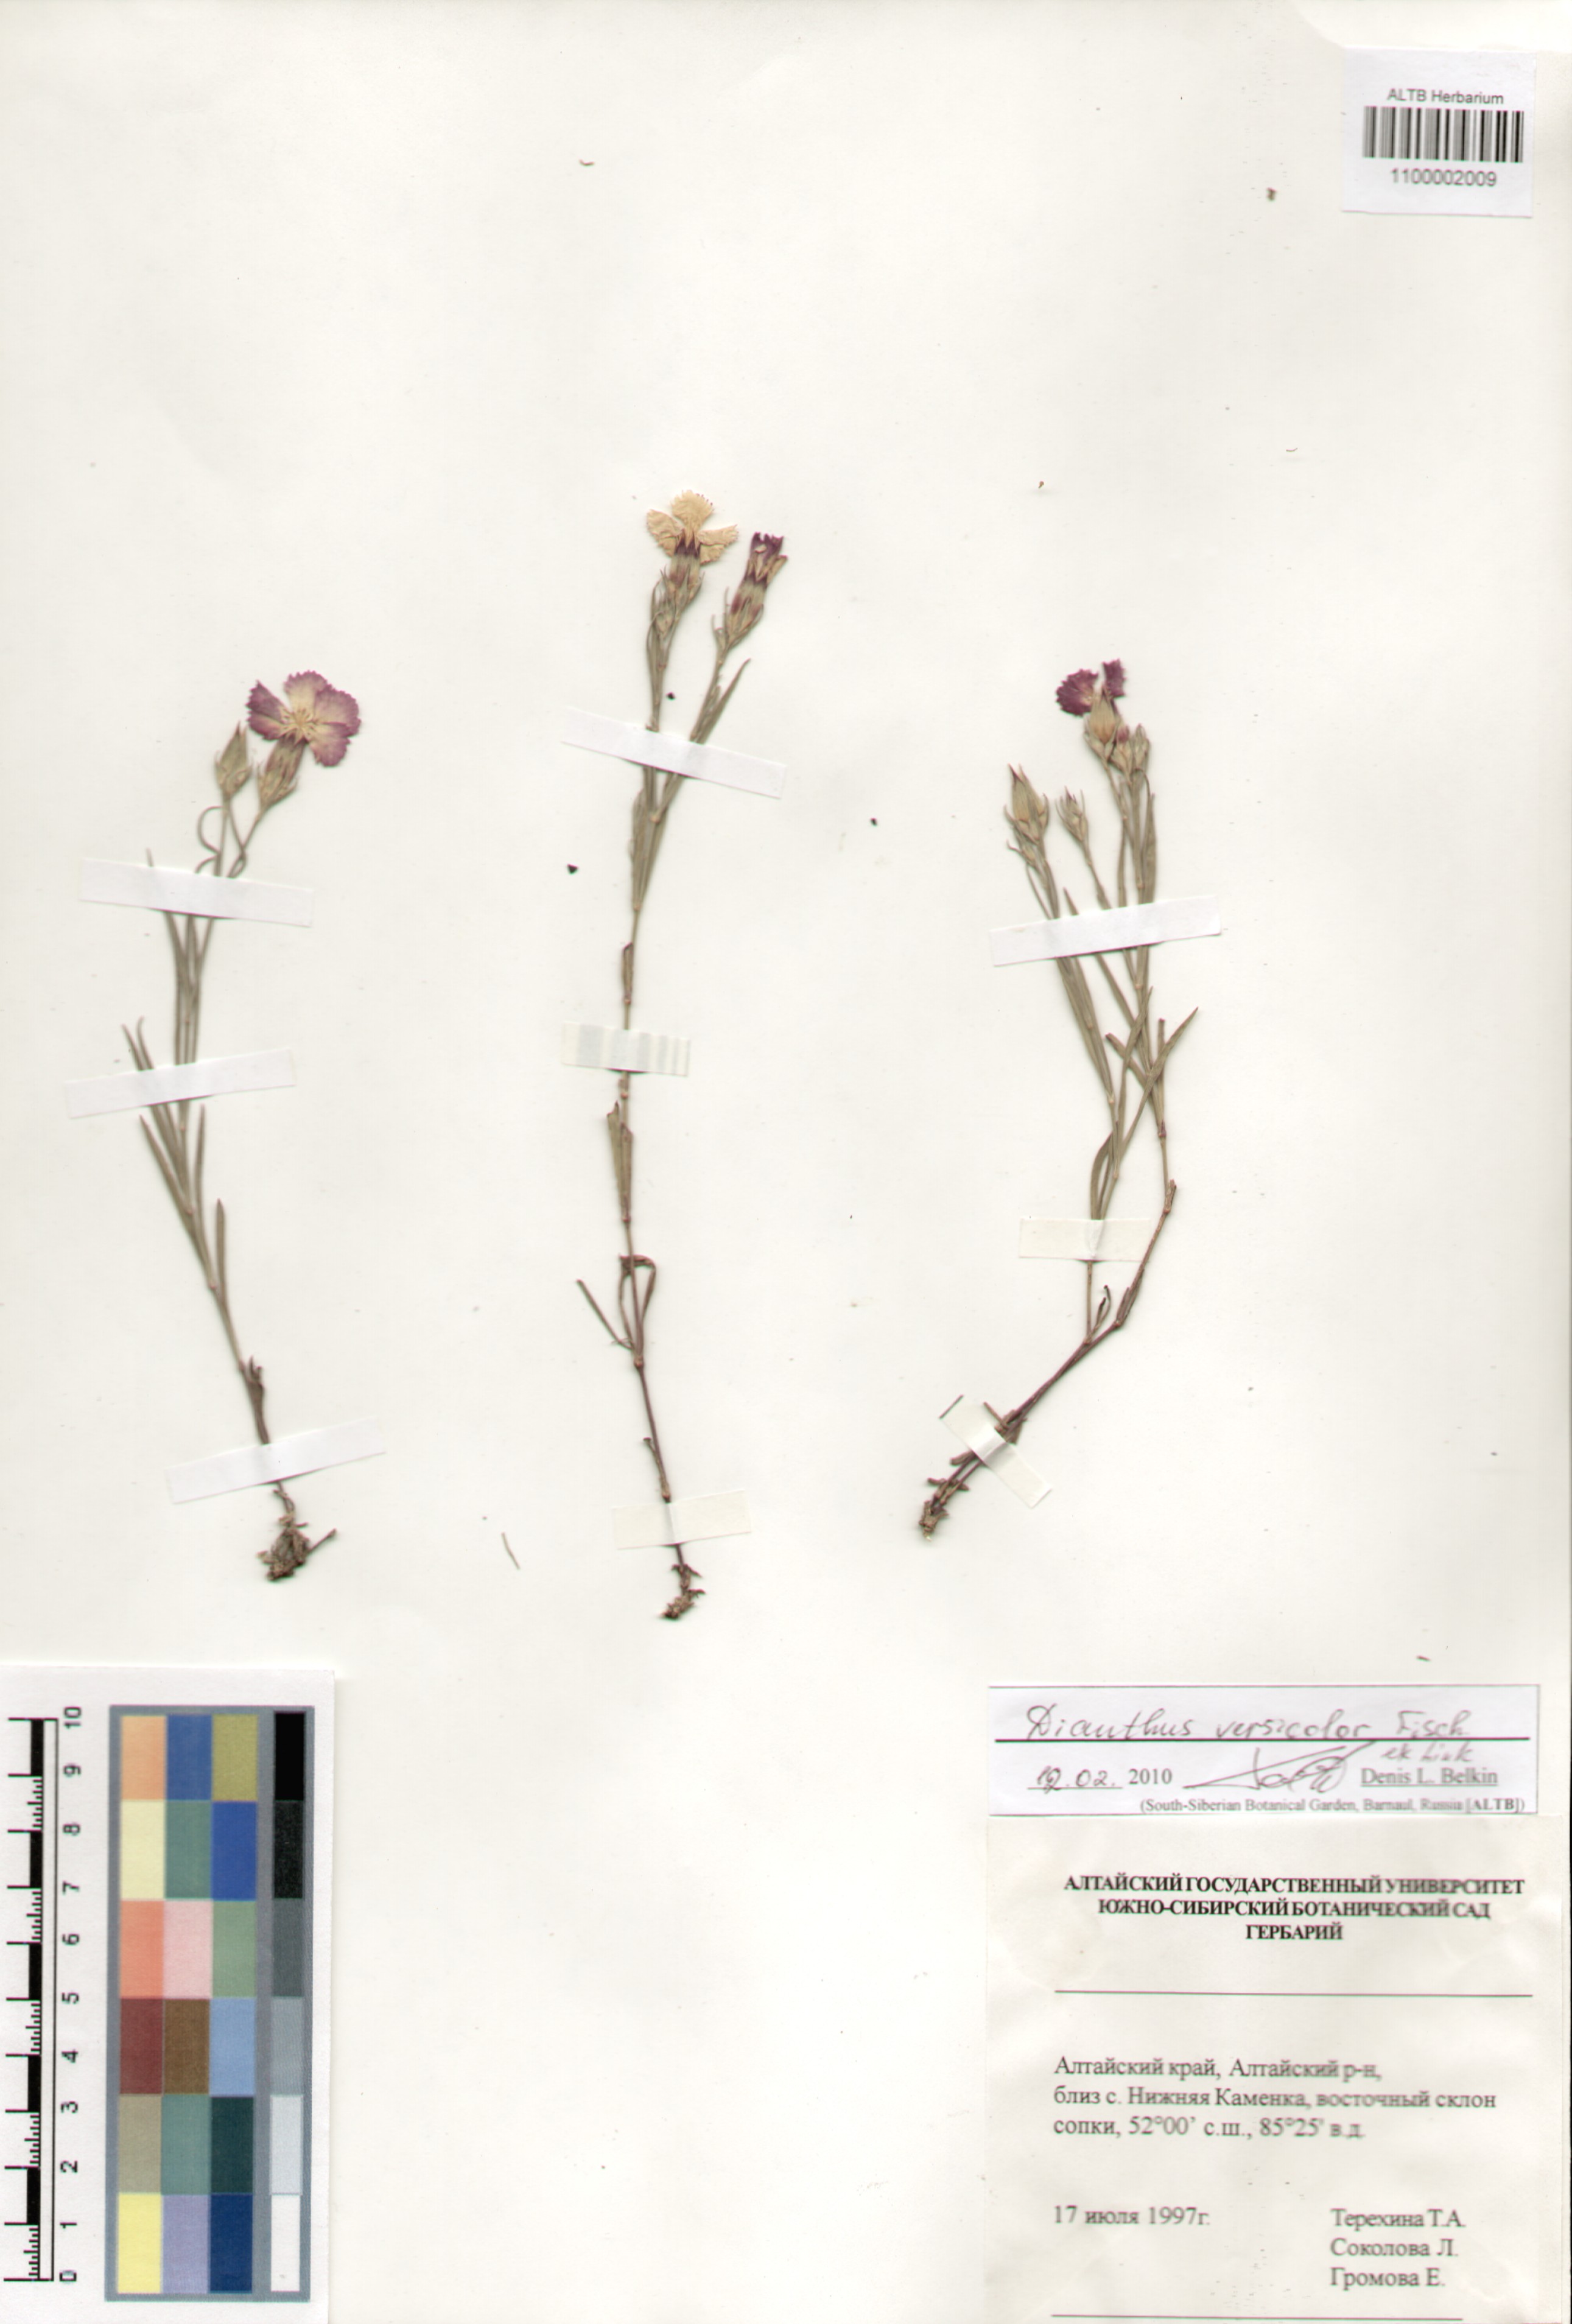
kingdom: Plantae
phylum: Tracheophyta
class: Magnoliopsida
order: Caryophyllales
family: Caryophyllaceae
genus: Dianthus
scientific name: Dianthus chinensis
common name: Rainbow pink
